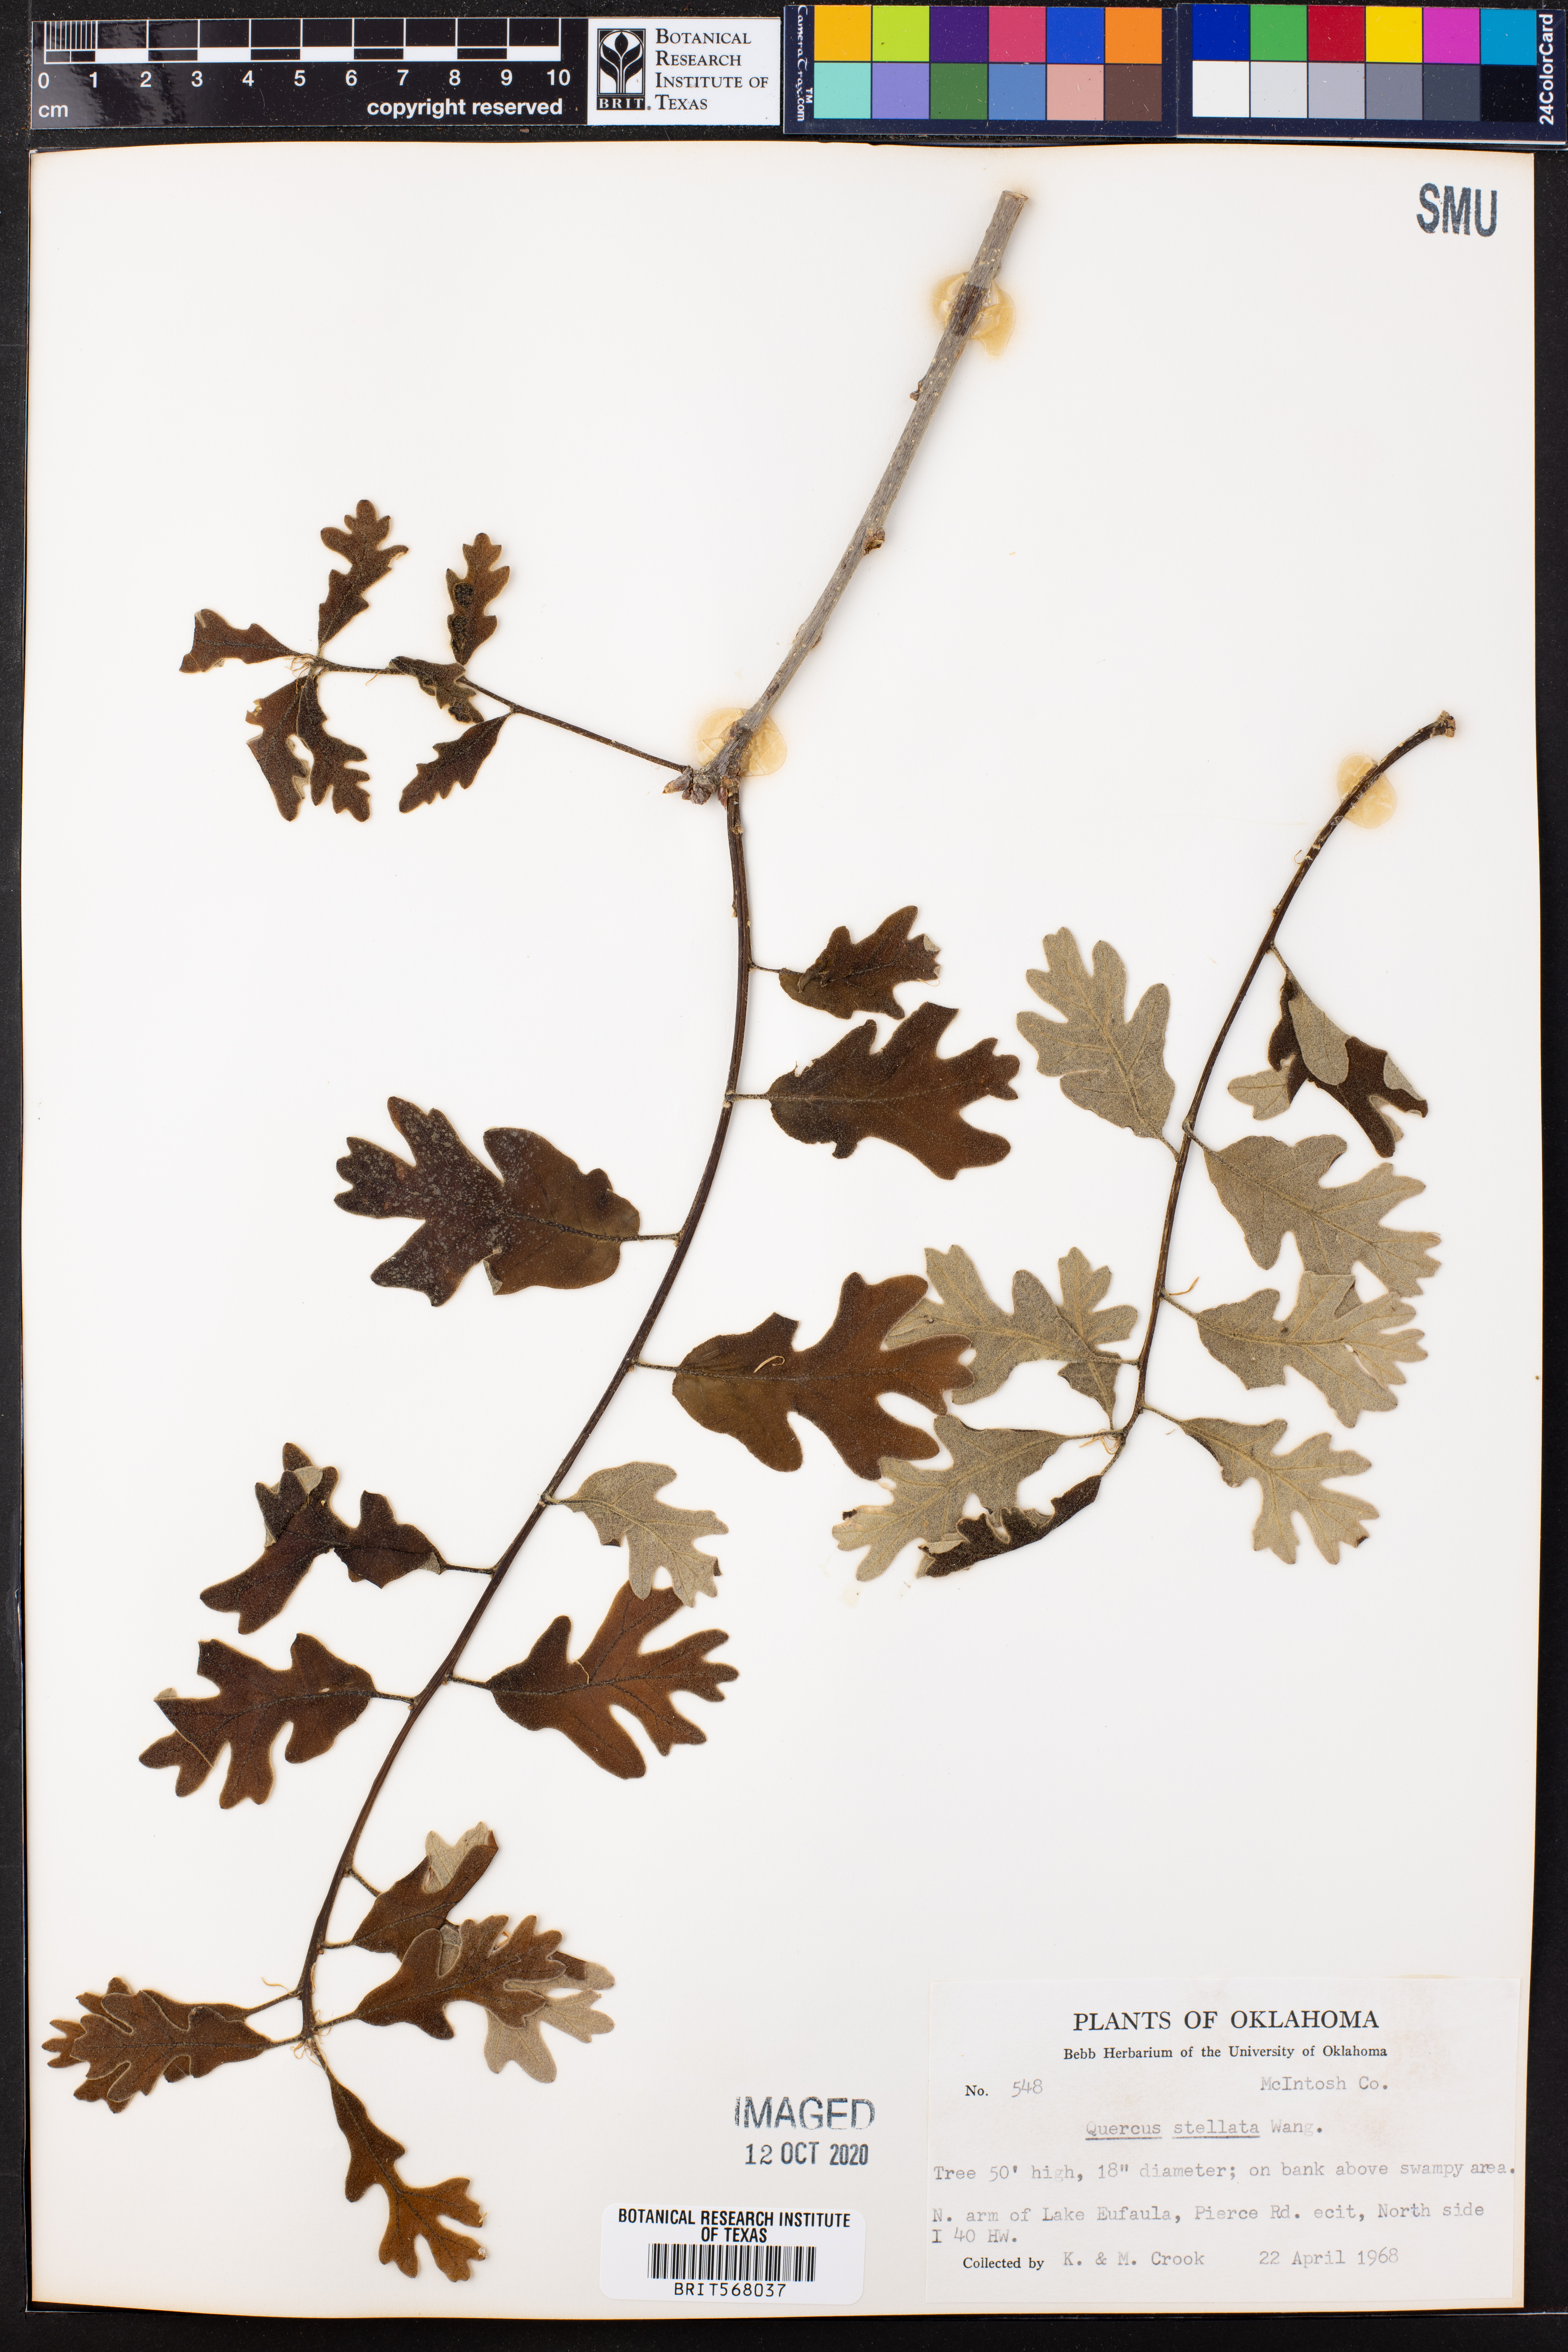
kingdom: Plantae
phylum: Tracheophyta
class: Magnoliopsida
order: Fagales
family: Fagaceae
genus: Quercus
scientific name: Quercus stellata
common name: Post oak
